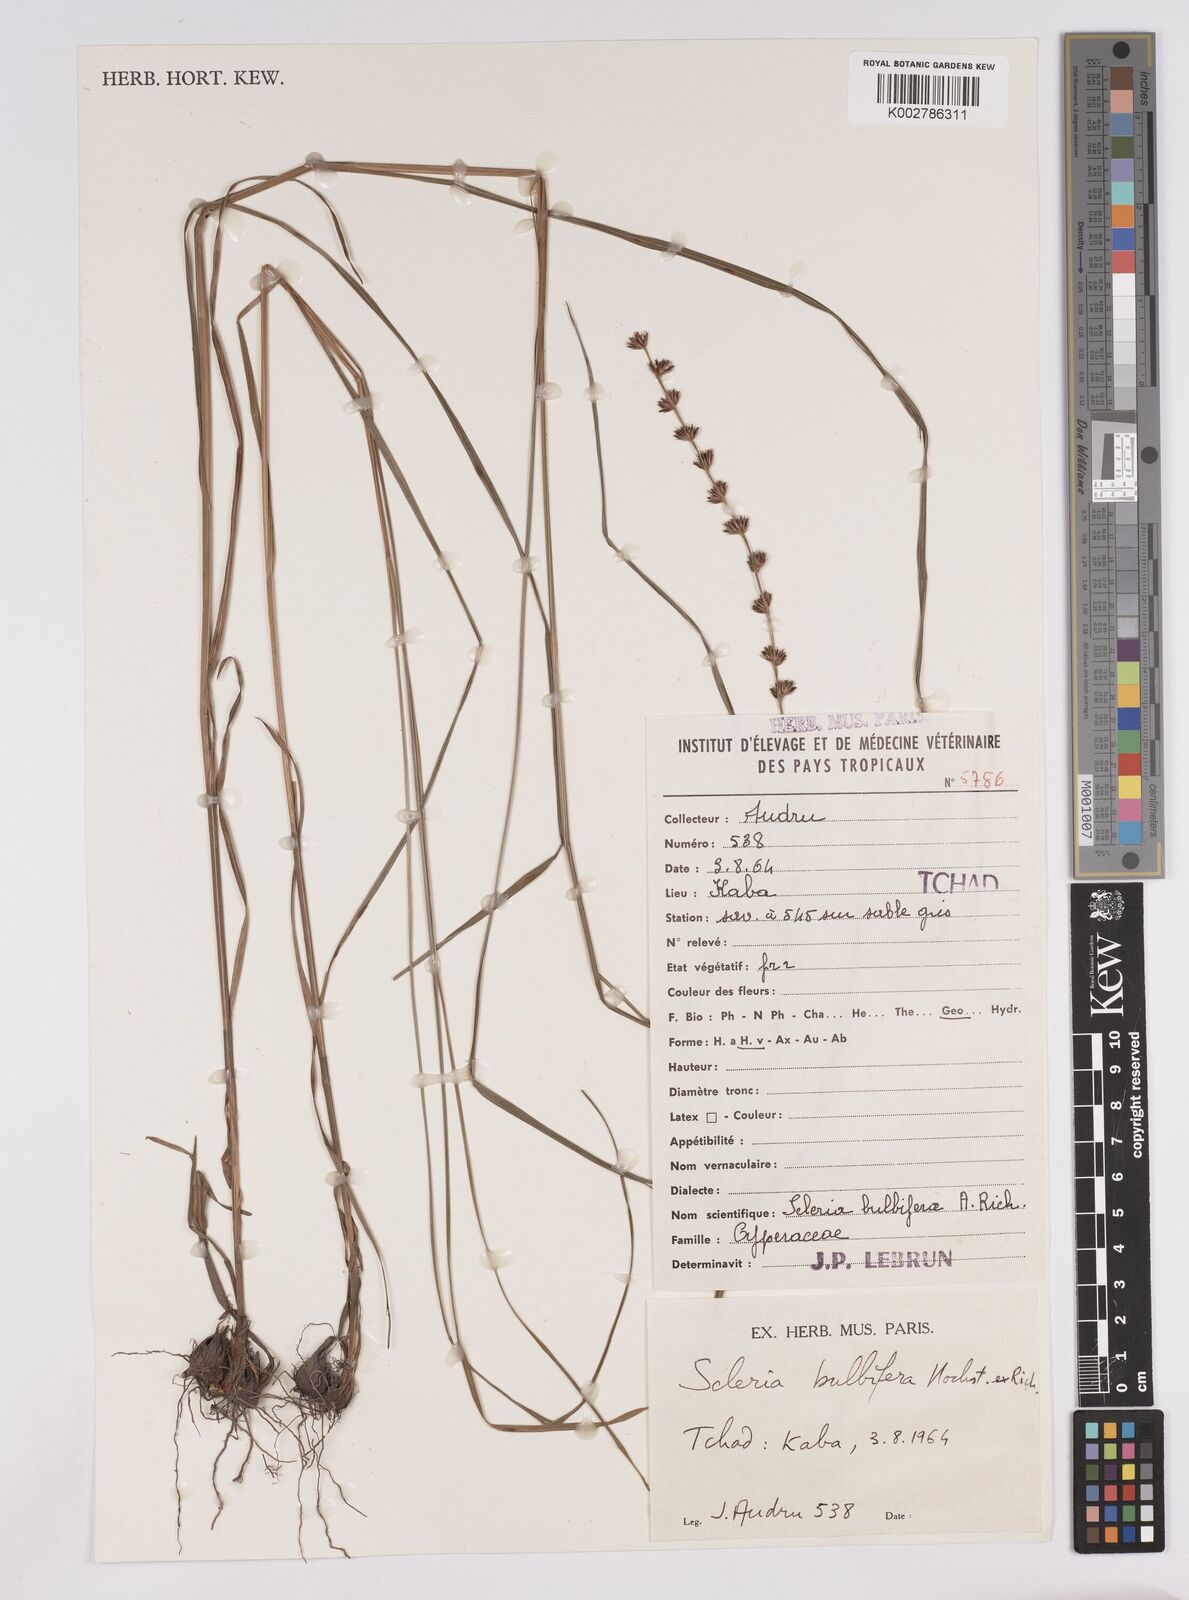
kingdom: Plantae
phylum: Tracheophyta
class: Liliopsida
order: Poales
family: Cyperaceae
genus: Scleria
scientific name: Scleria bulbifera
